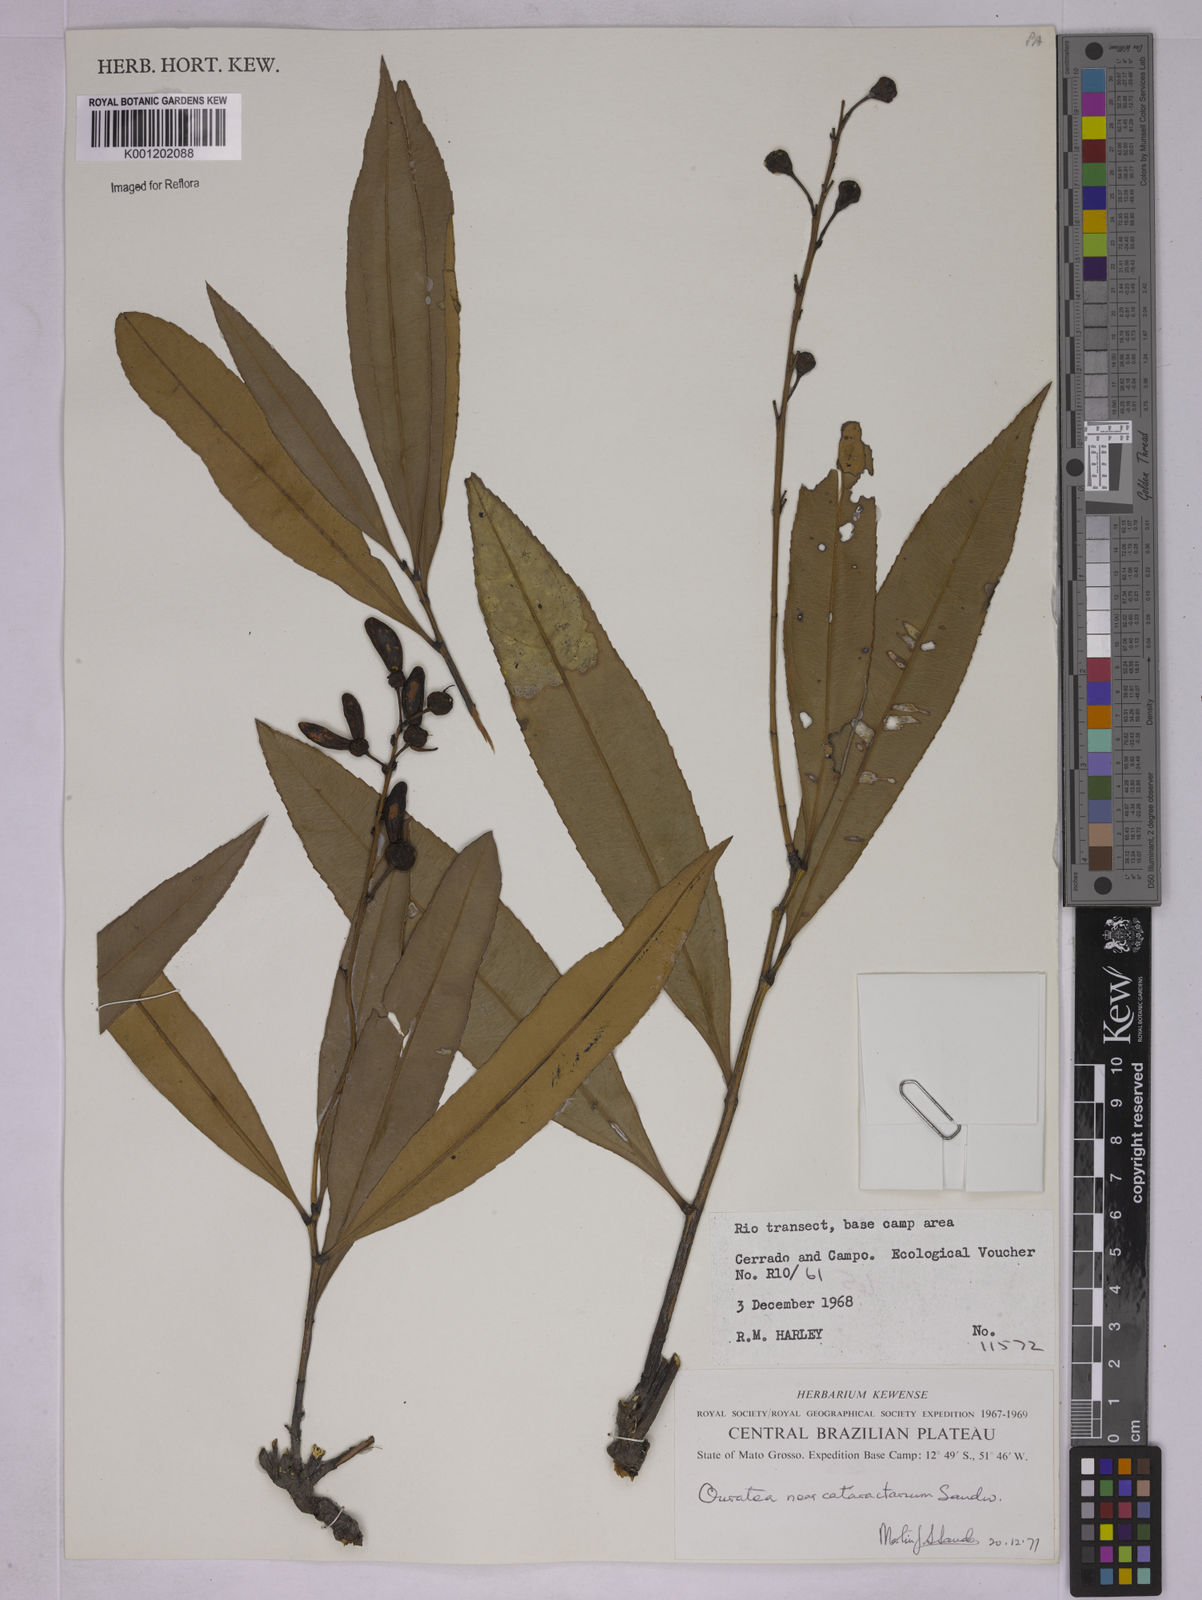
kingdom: Plantae
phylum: Tracheophyta
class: Magnoliopsida
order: Malpighiales
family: Ochnaceae
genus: Ouratea
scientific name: Ouratea
